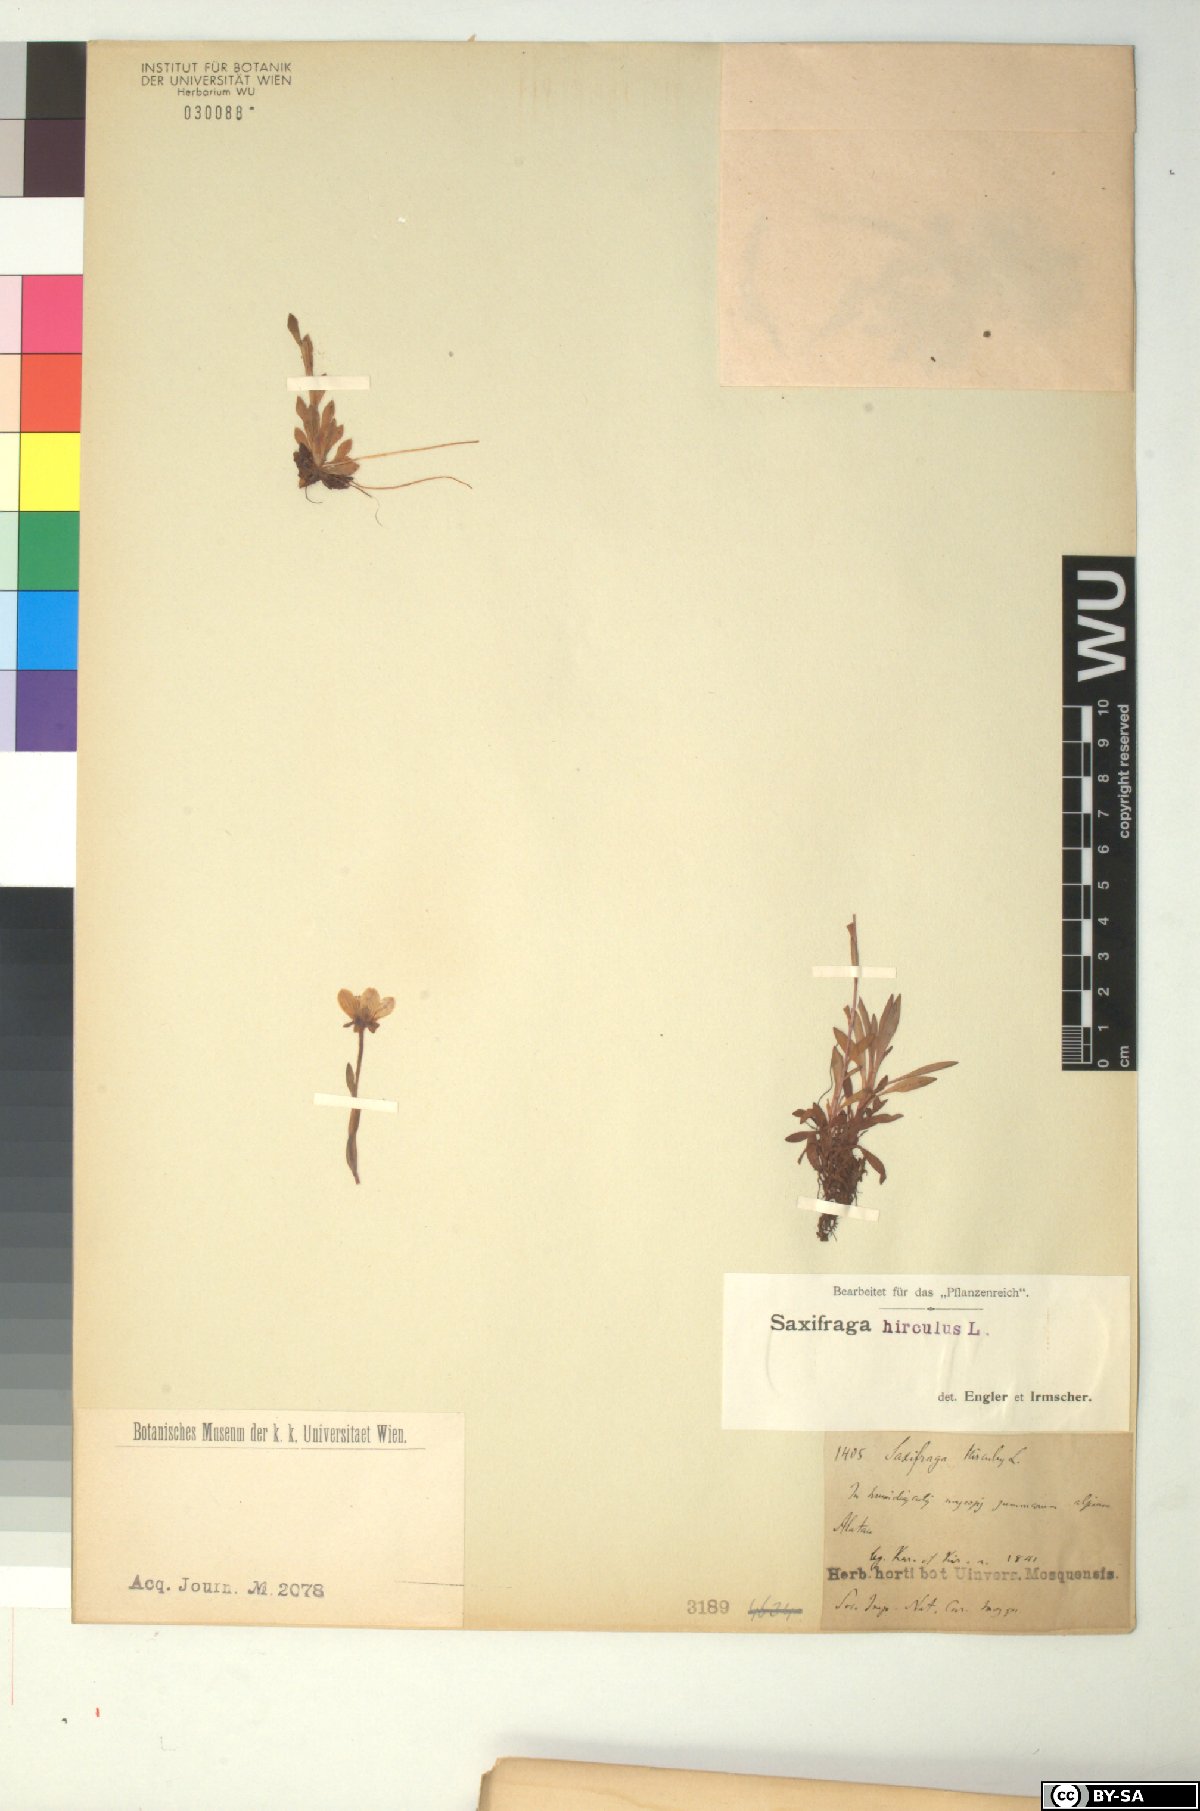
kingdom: Plantae
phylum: Tracheophyta
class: Magnoliopsida
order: Saxifragales
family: Saxifragaceae
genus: Saxifraga
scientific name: Saxifraga hirculus
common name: Yellow marsh saxifrage
